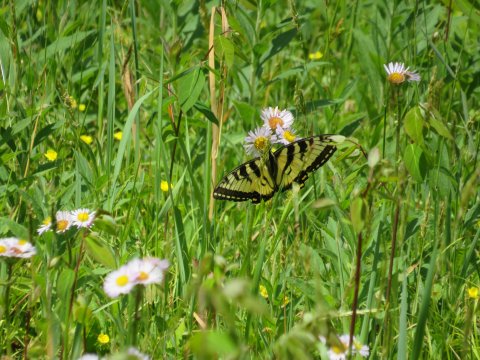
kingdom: Animalia
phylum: Arthropoda
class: Insecta
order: Lepidoptera
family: Papilionidae
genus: Pterourus
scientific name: Pterourus glaucus
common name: Eastern Tiger Swallowtail
